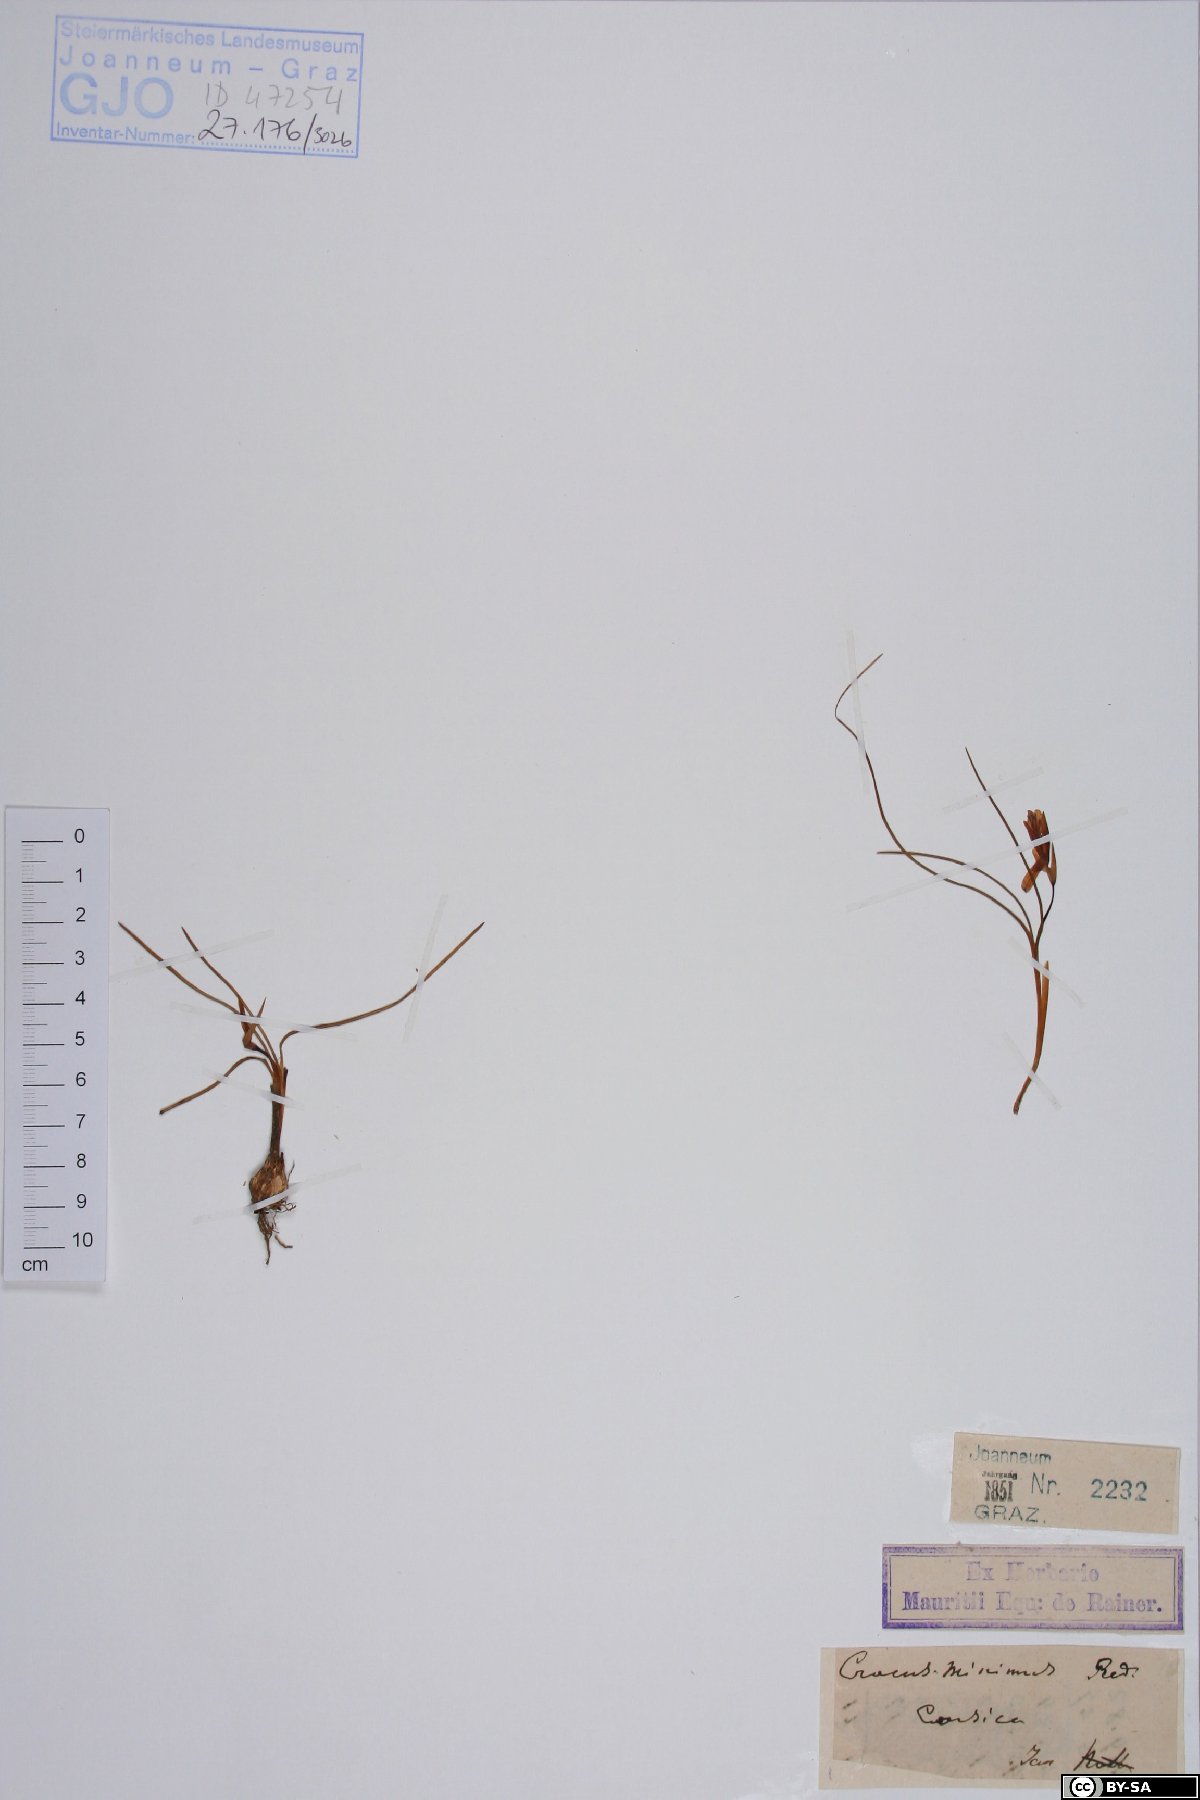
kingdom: Plantae
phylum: Tracheophyta
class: Liliopsida
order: Asparagales
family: Iridaceae
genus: Crocus
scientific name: Crocus minimus
